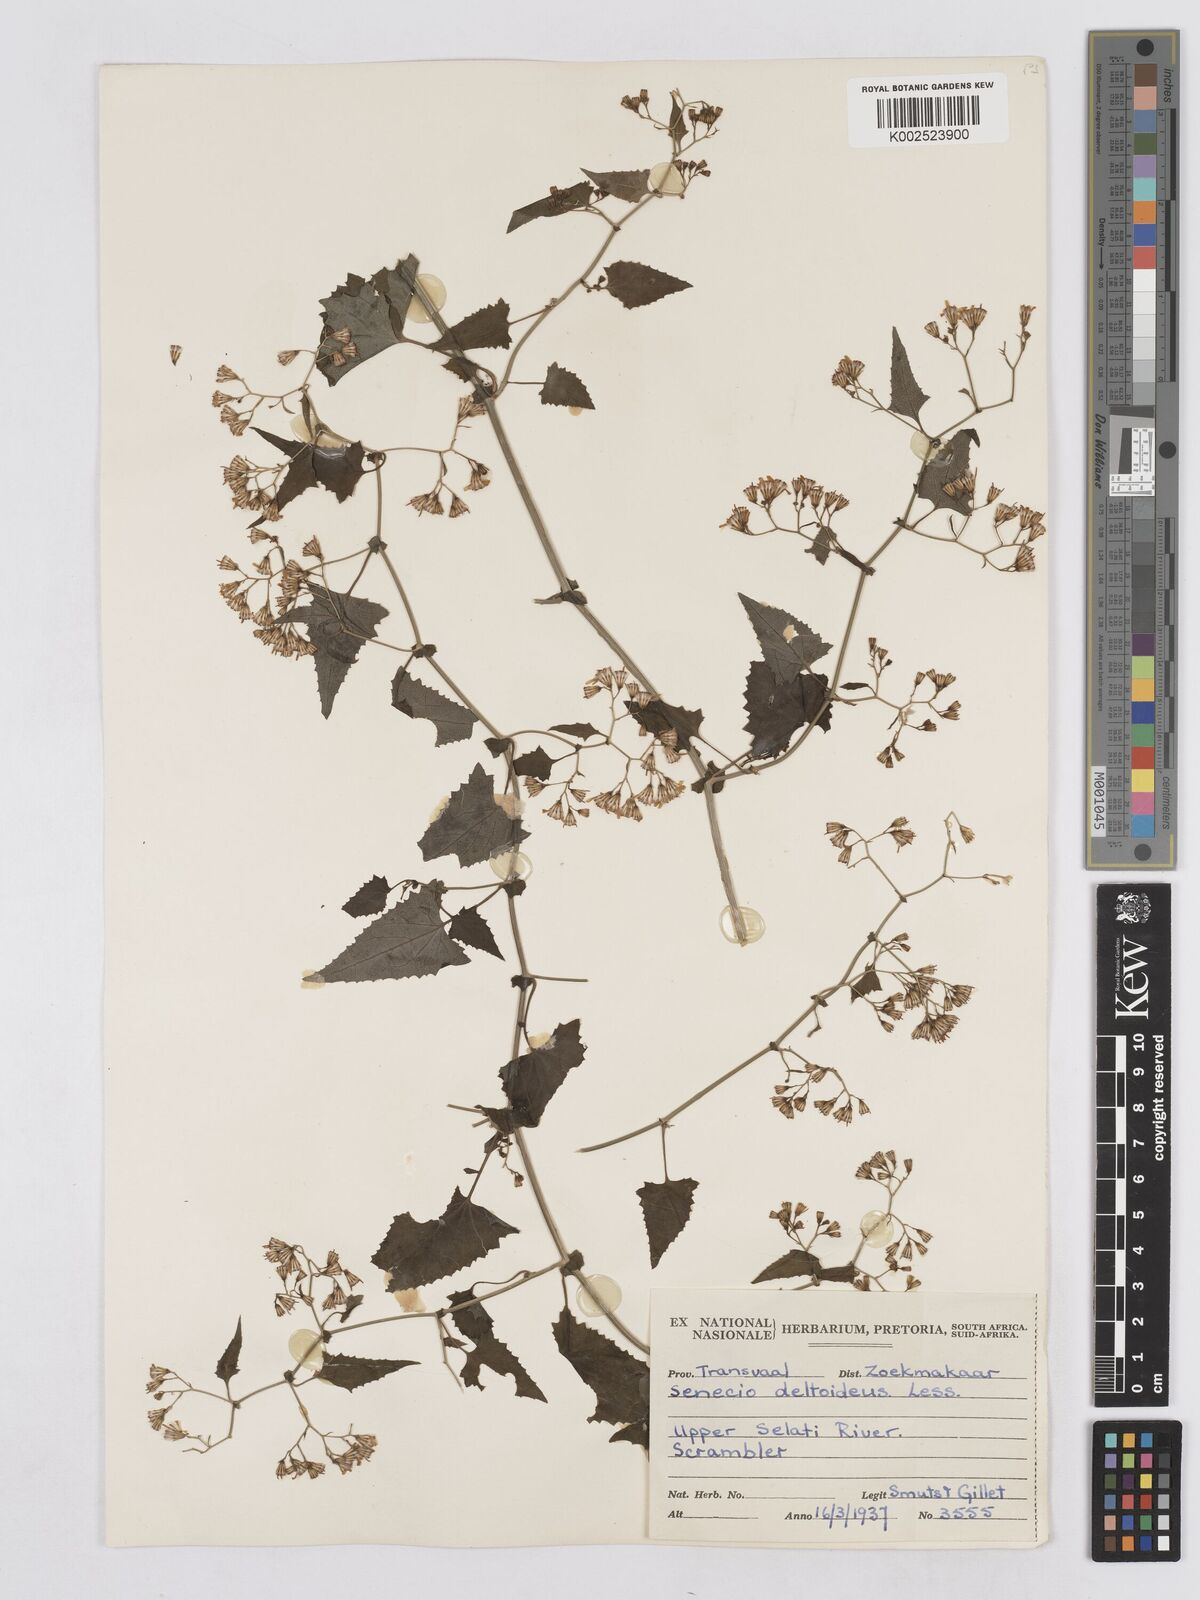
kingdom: Plantae
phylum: Tracheophyta
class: Magnoliopsida
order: Asterales
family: Asteraceae
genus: Senecio
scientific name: Senecio deltoideus
